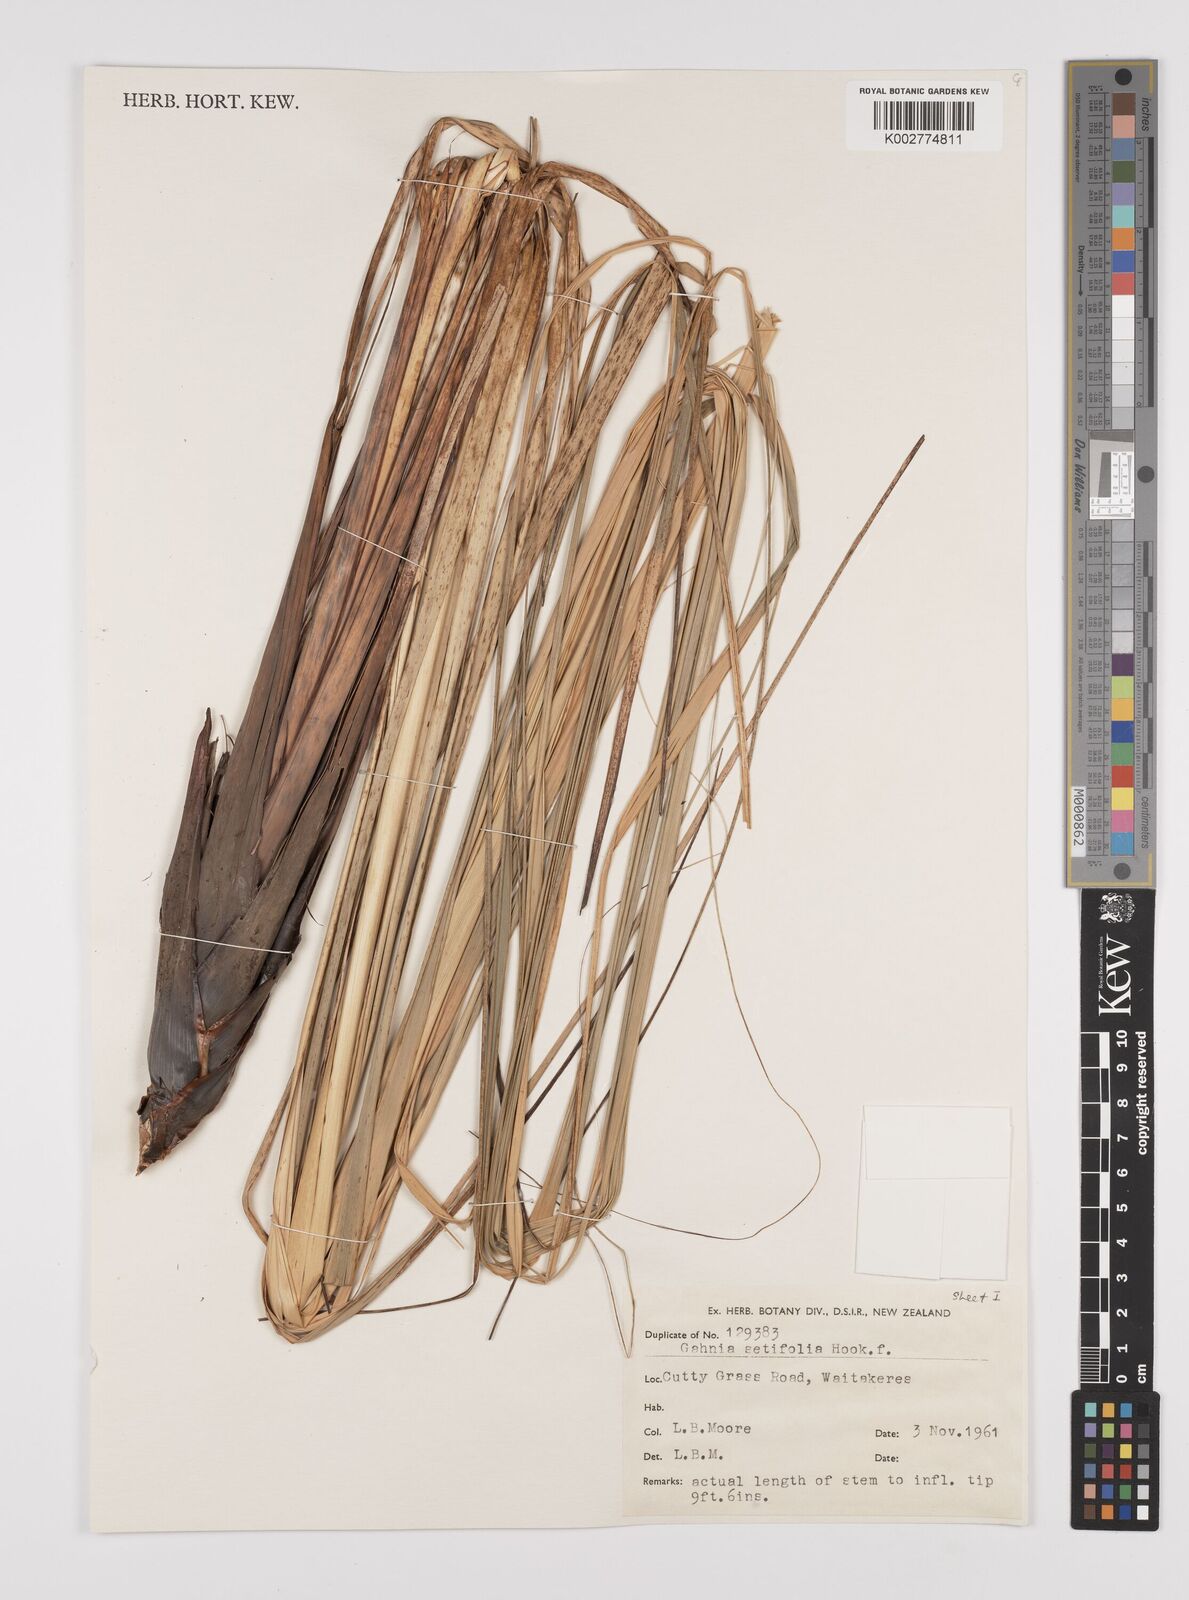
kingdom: Plantae
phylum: Tracheophyta
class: Liliopsida
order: Poales
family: Cyperaceae
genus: Gahnia
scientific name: Gahnia setifolia
